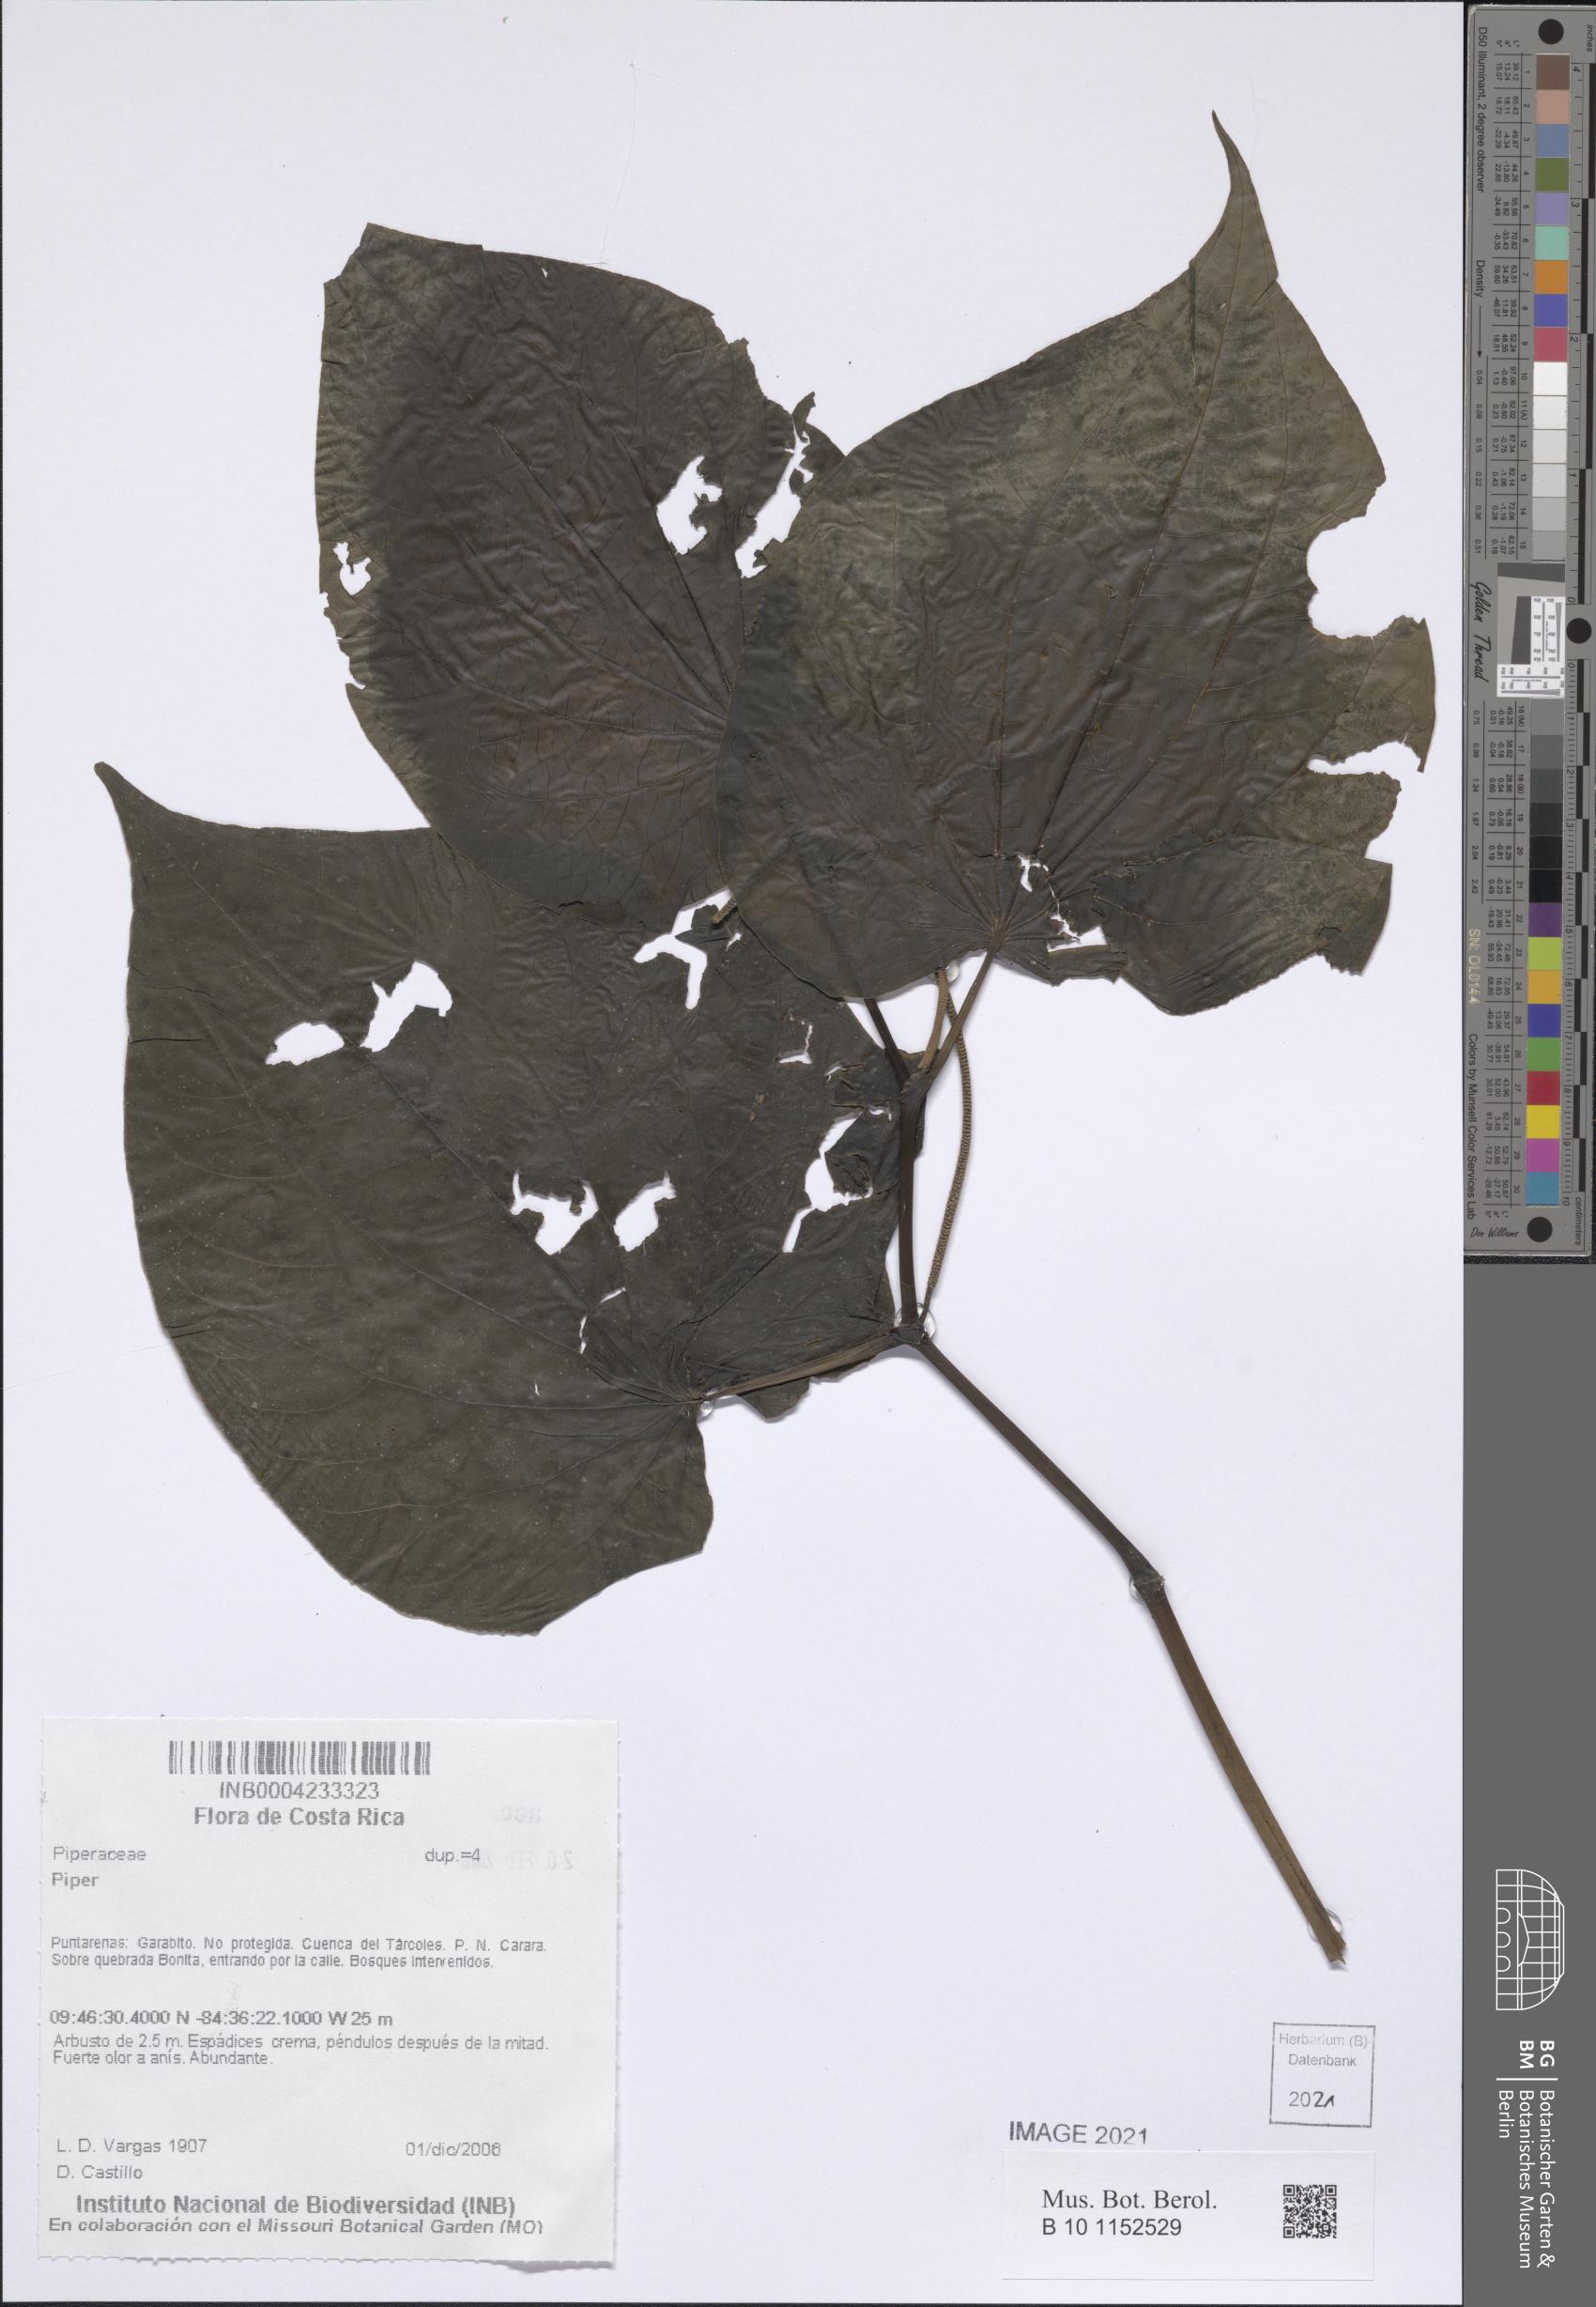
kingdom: Plantae
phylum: Tracheophyta
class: Magnoliopsida
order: Piperales
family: Piperaceae
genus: Piper
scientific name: Piper
